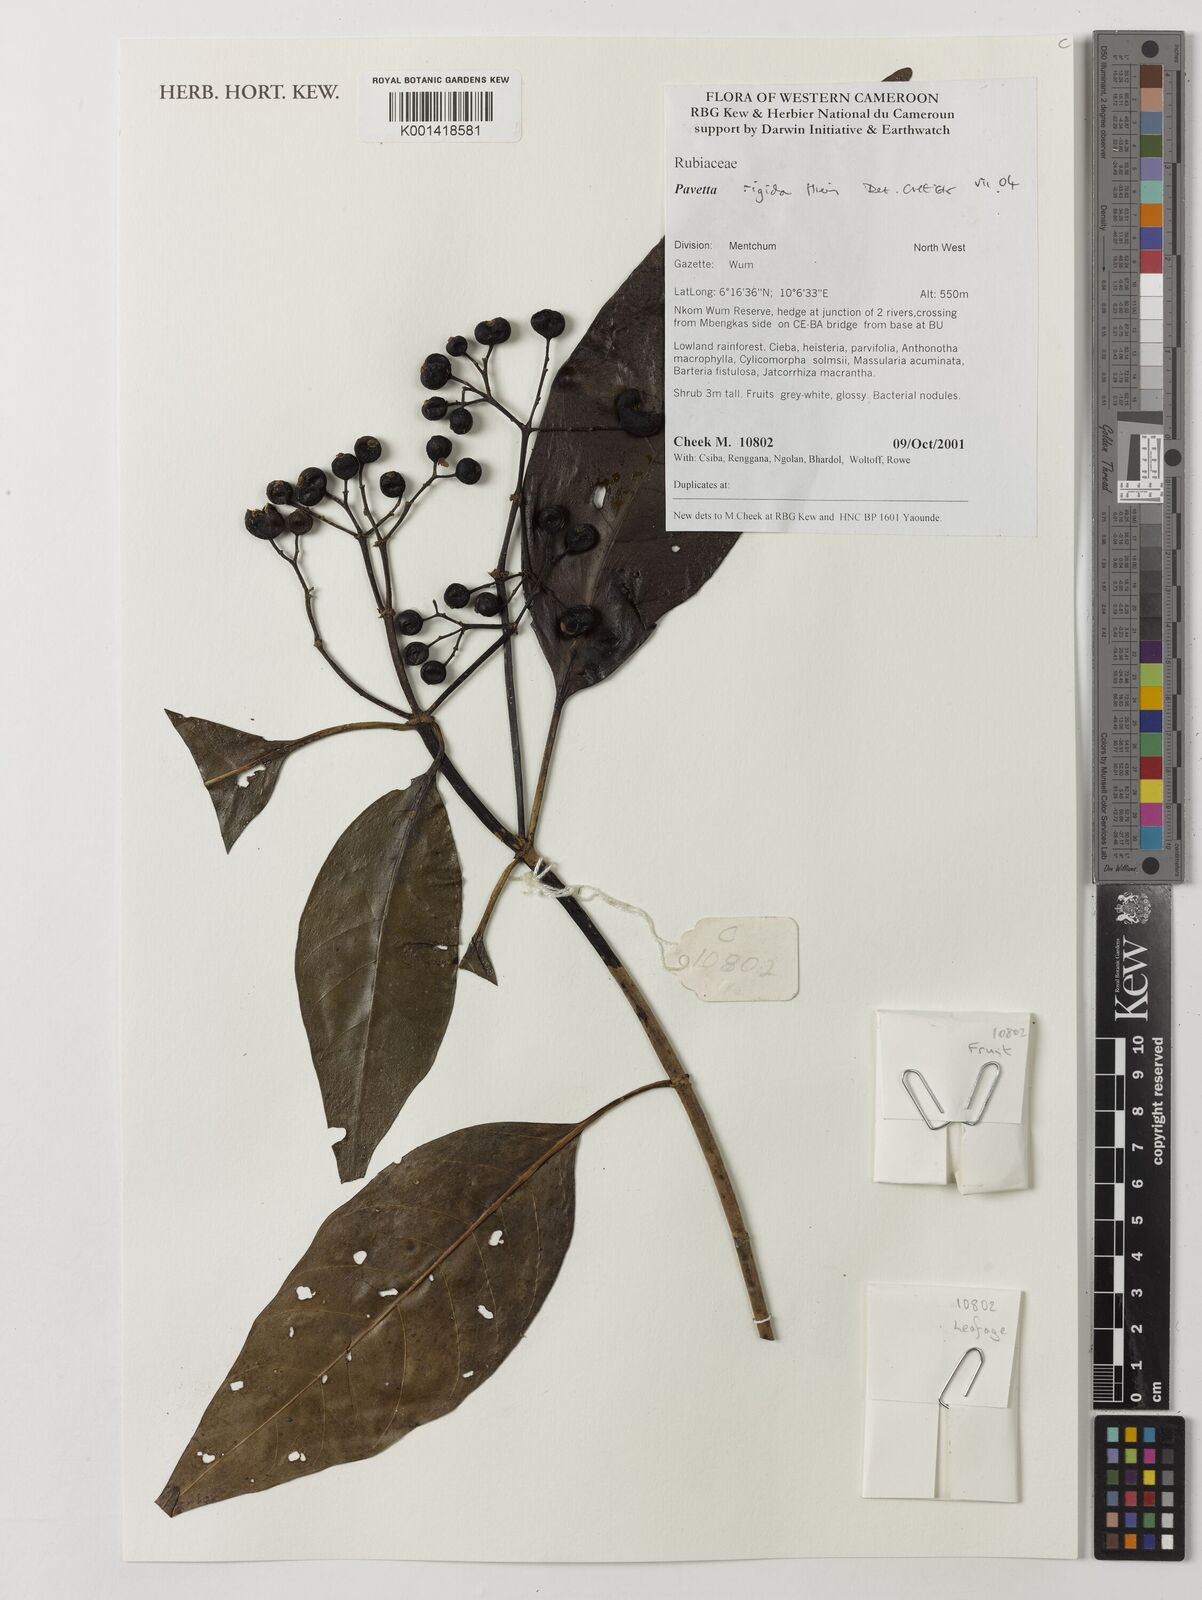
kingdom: Plantae
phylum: Tracheophyta
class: Magnoliopsida
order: Gentianales
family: Rubiaceae
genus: Pavetta
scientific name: Pavetta rigida
